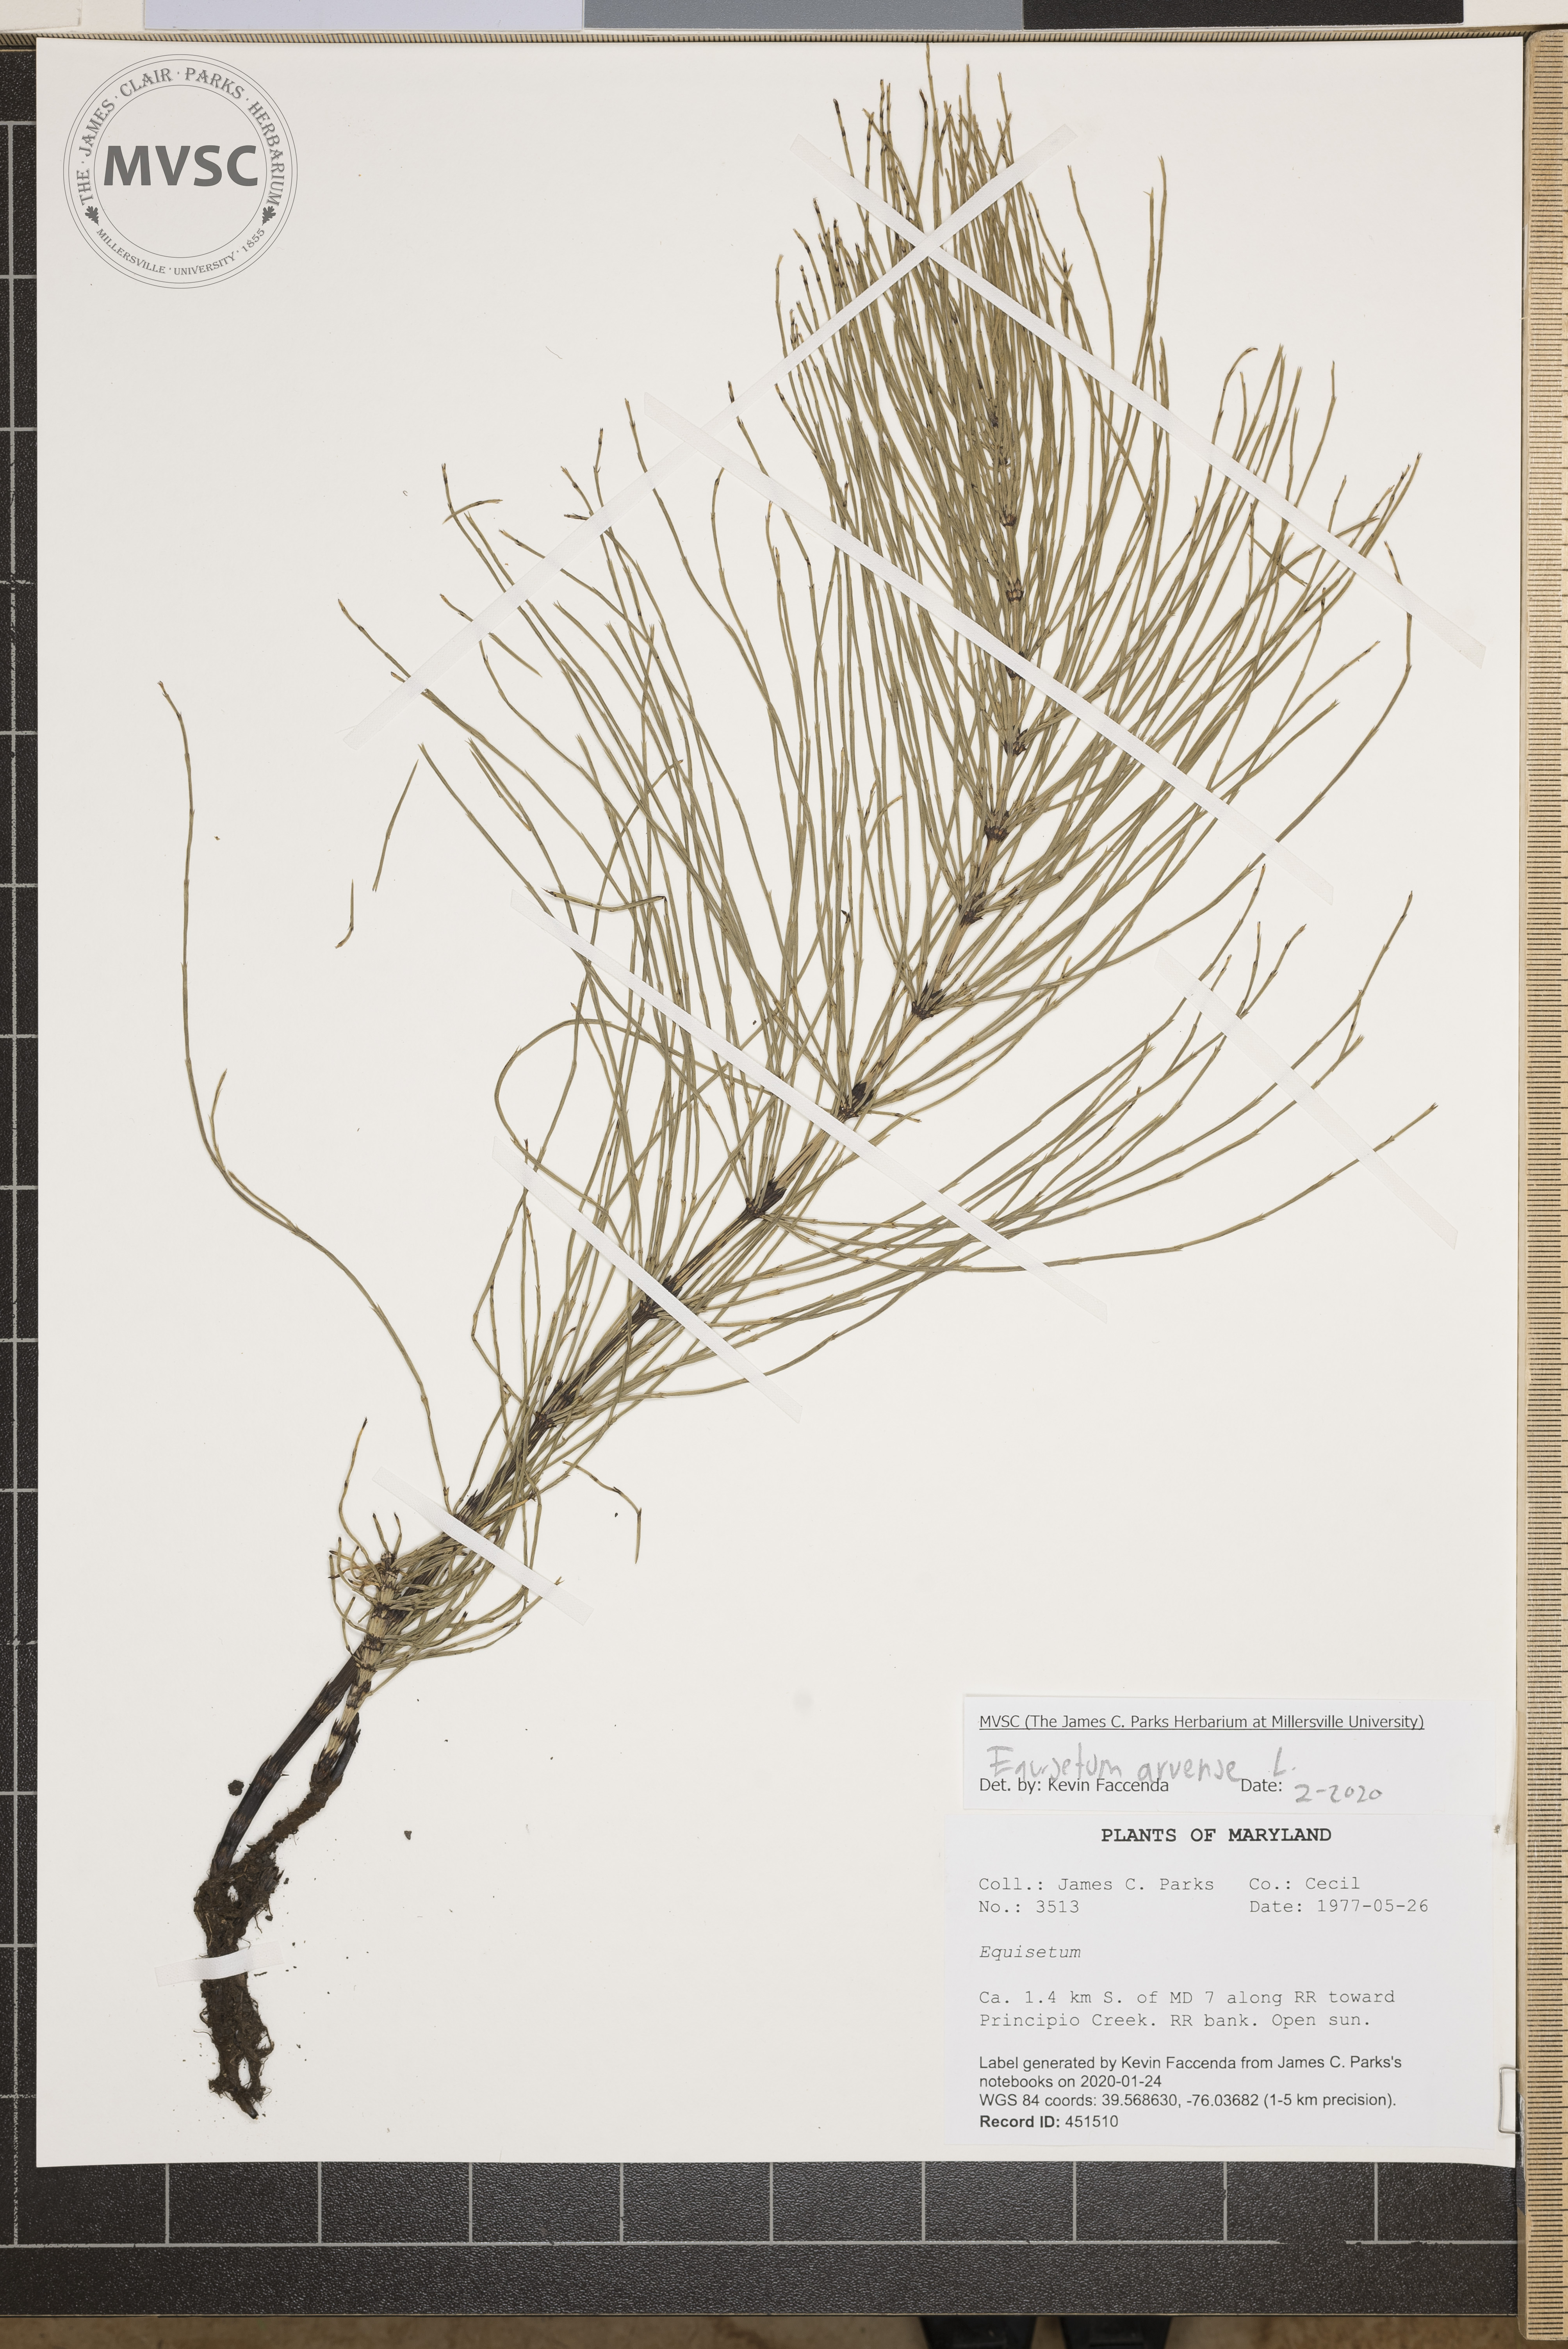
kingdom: Plantae
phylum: Tracheophyta
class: Polypodiopsida
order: Equisetales
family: Equisetaceae
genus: Equisetum
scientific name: Equisetum arvense
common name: Field horsetail
